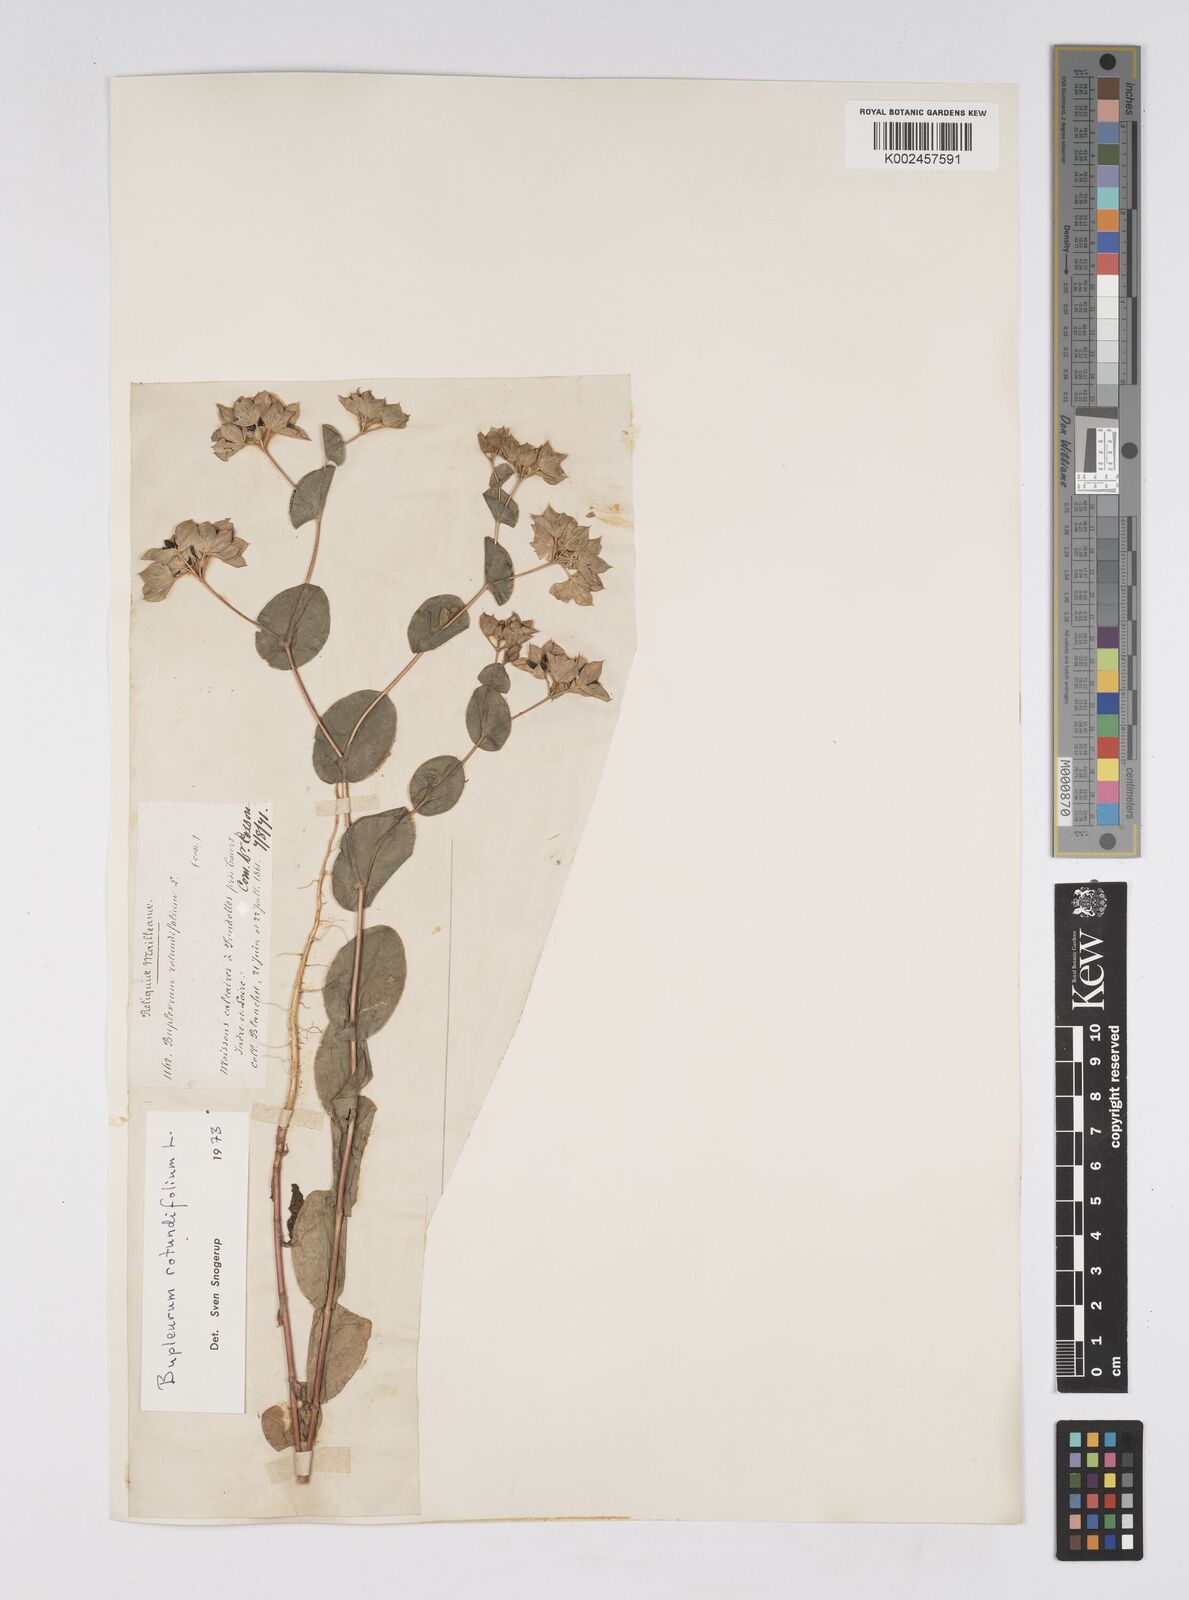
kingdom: Plantae
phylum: Tracheophyta
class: Magnoliopsida
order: Apiales
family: Apiaceae
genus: Bupleurum
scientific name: Bupleurum rotundifolium
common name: Thorow-wax
